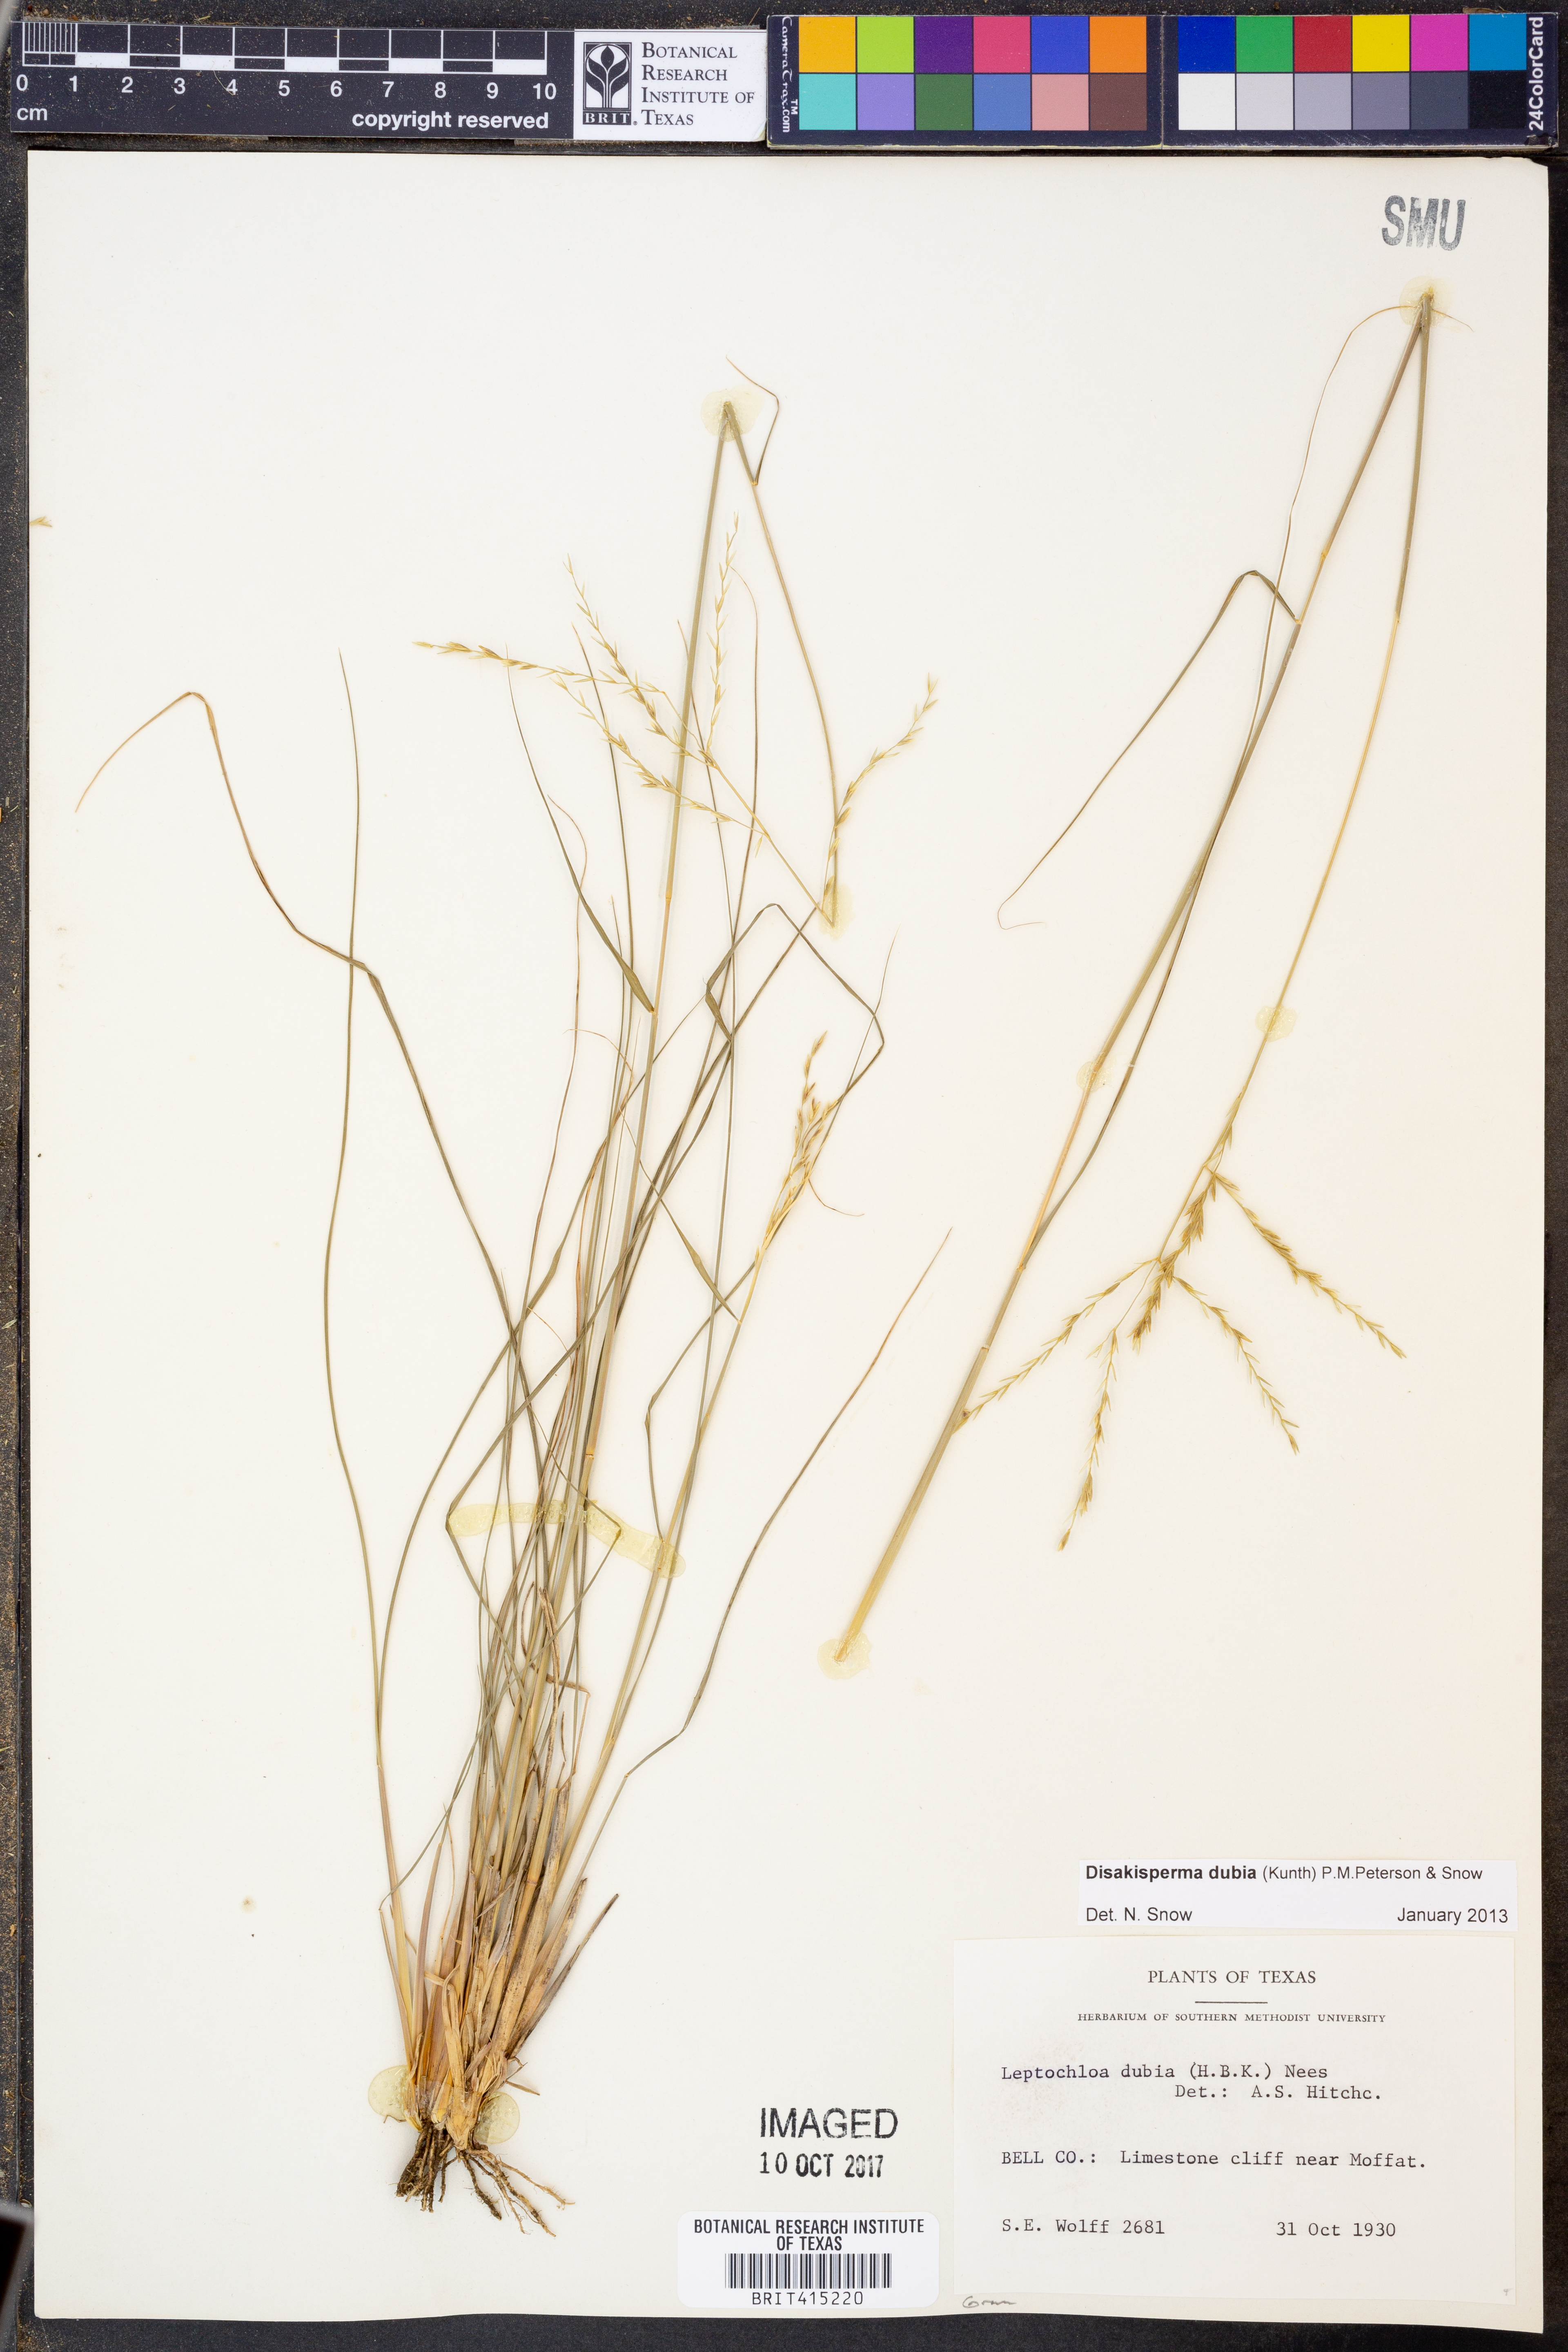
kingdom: Plantae
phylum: Tracheophyta
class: Liliopsida
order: Poales
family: Poaceae
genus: Disakisperma
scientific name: Disakisperma dubium
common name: Green sprangletop
